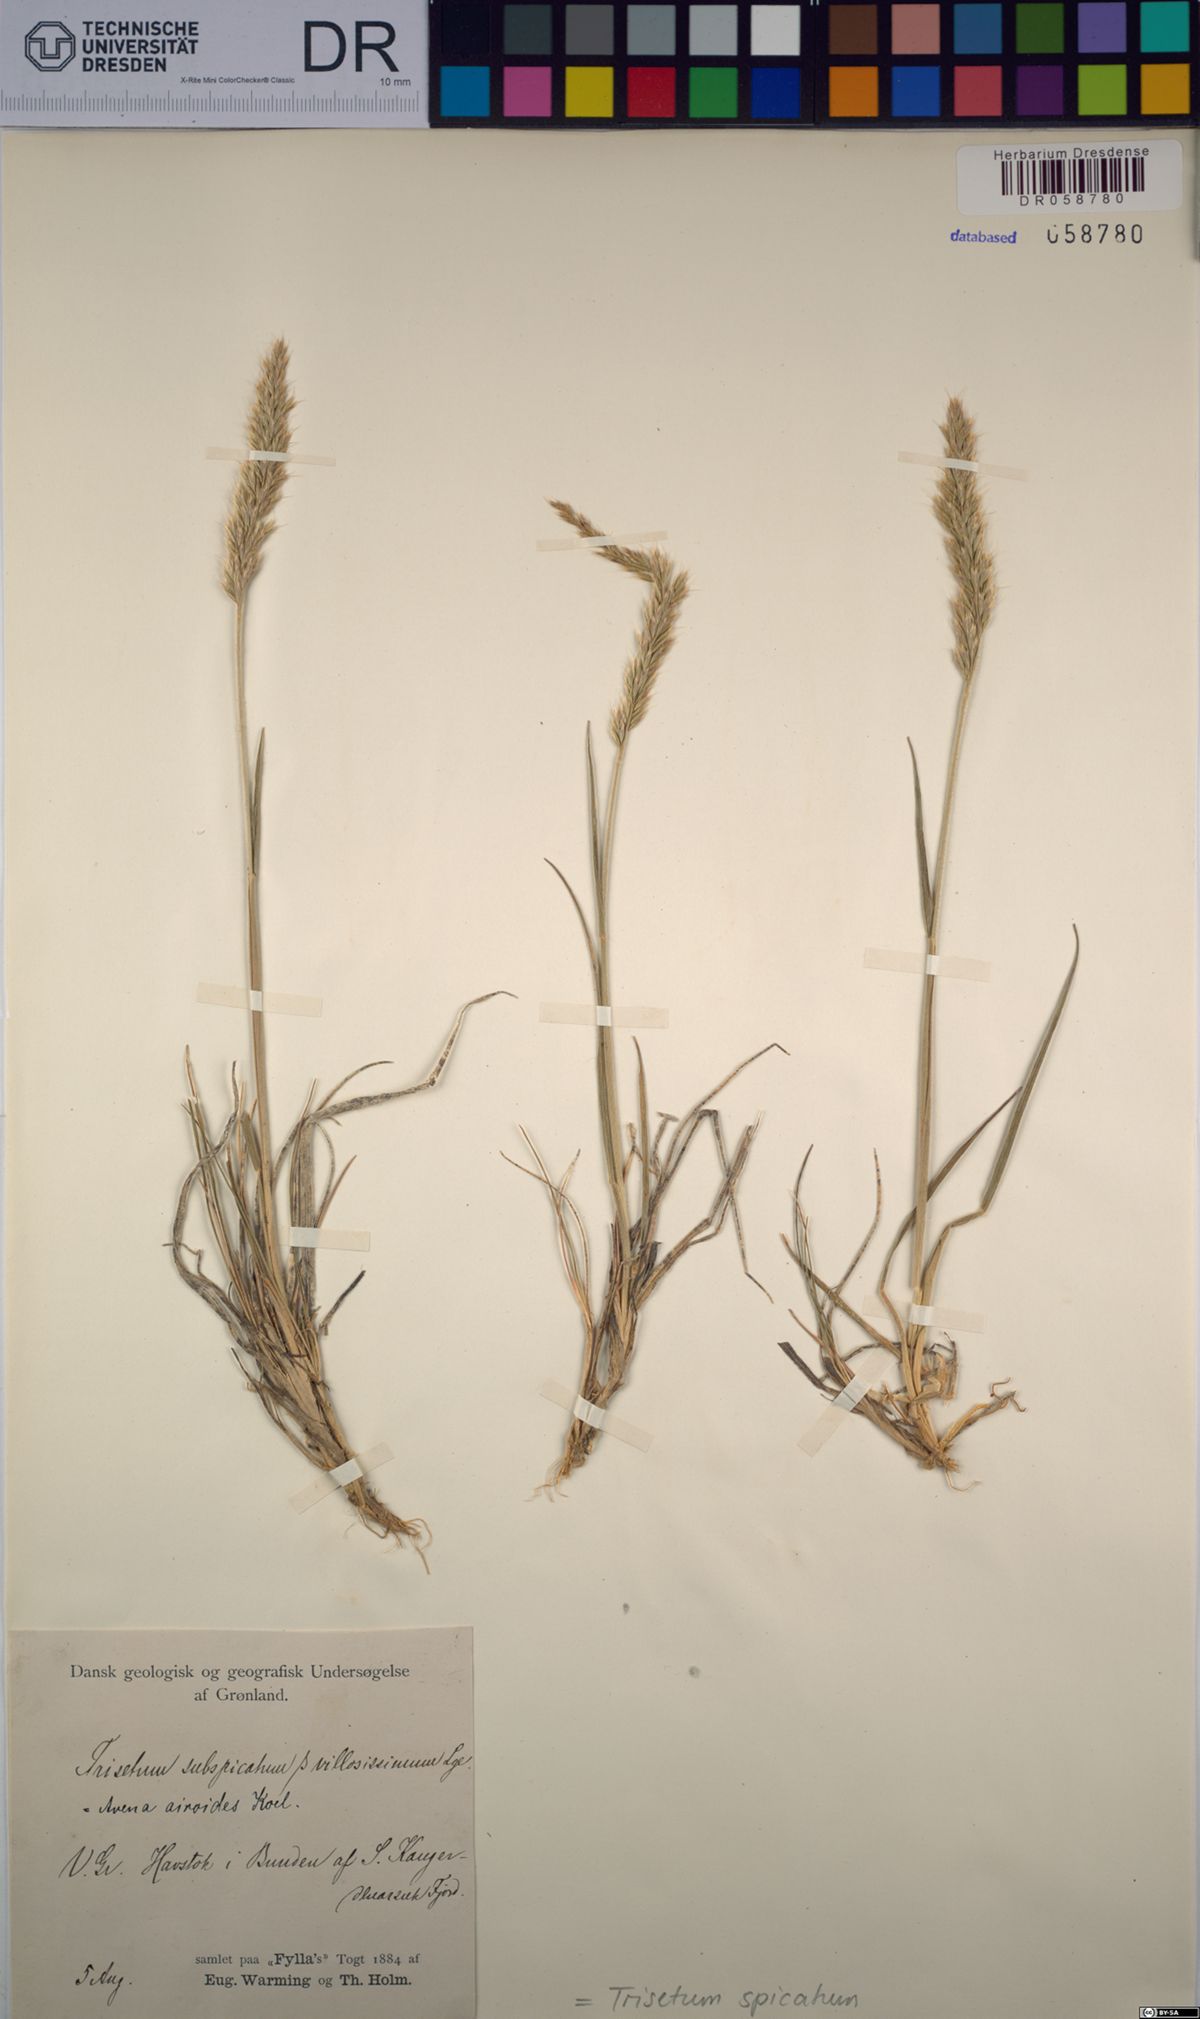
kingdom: Plantae
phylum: Tracheophyta
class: Liliopsida
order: Poales
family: Poaceae
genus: Koeleria
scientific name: Koeleria spicata
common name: Mountain trisetum
